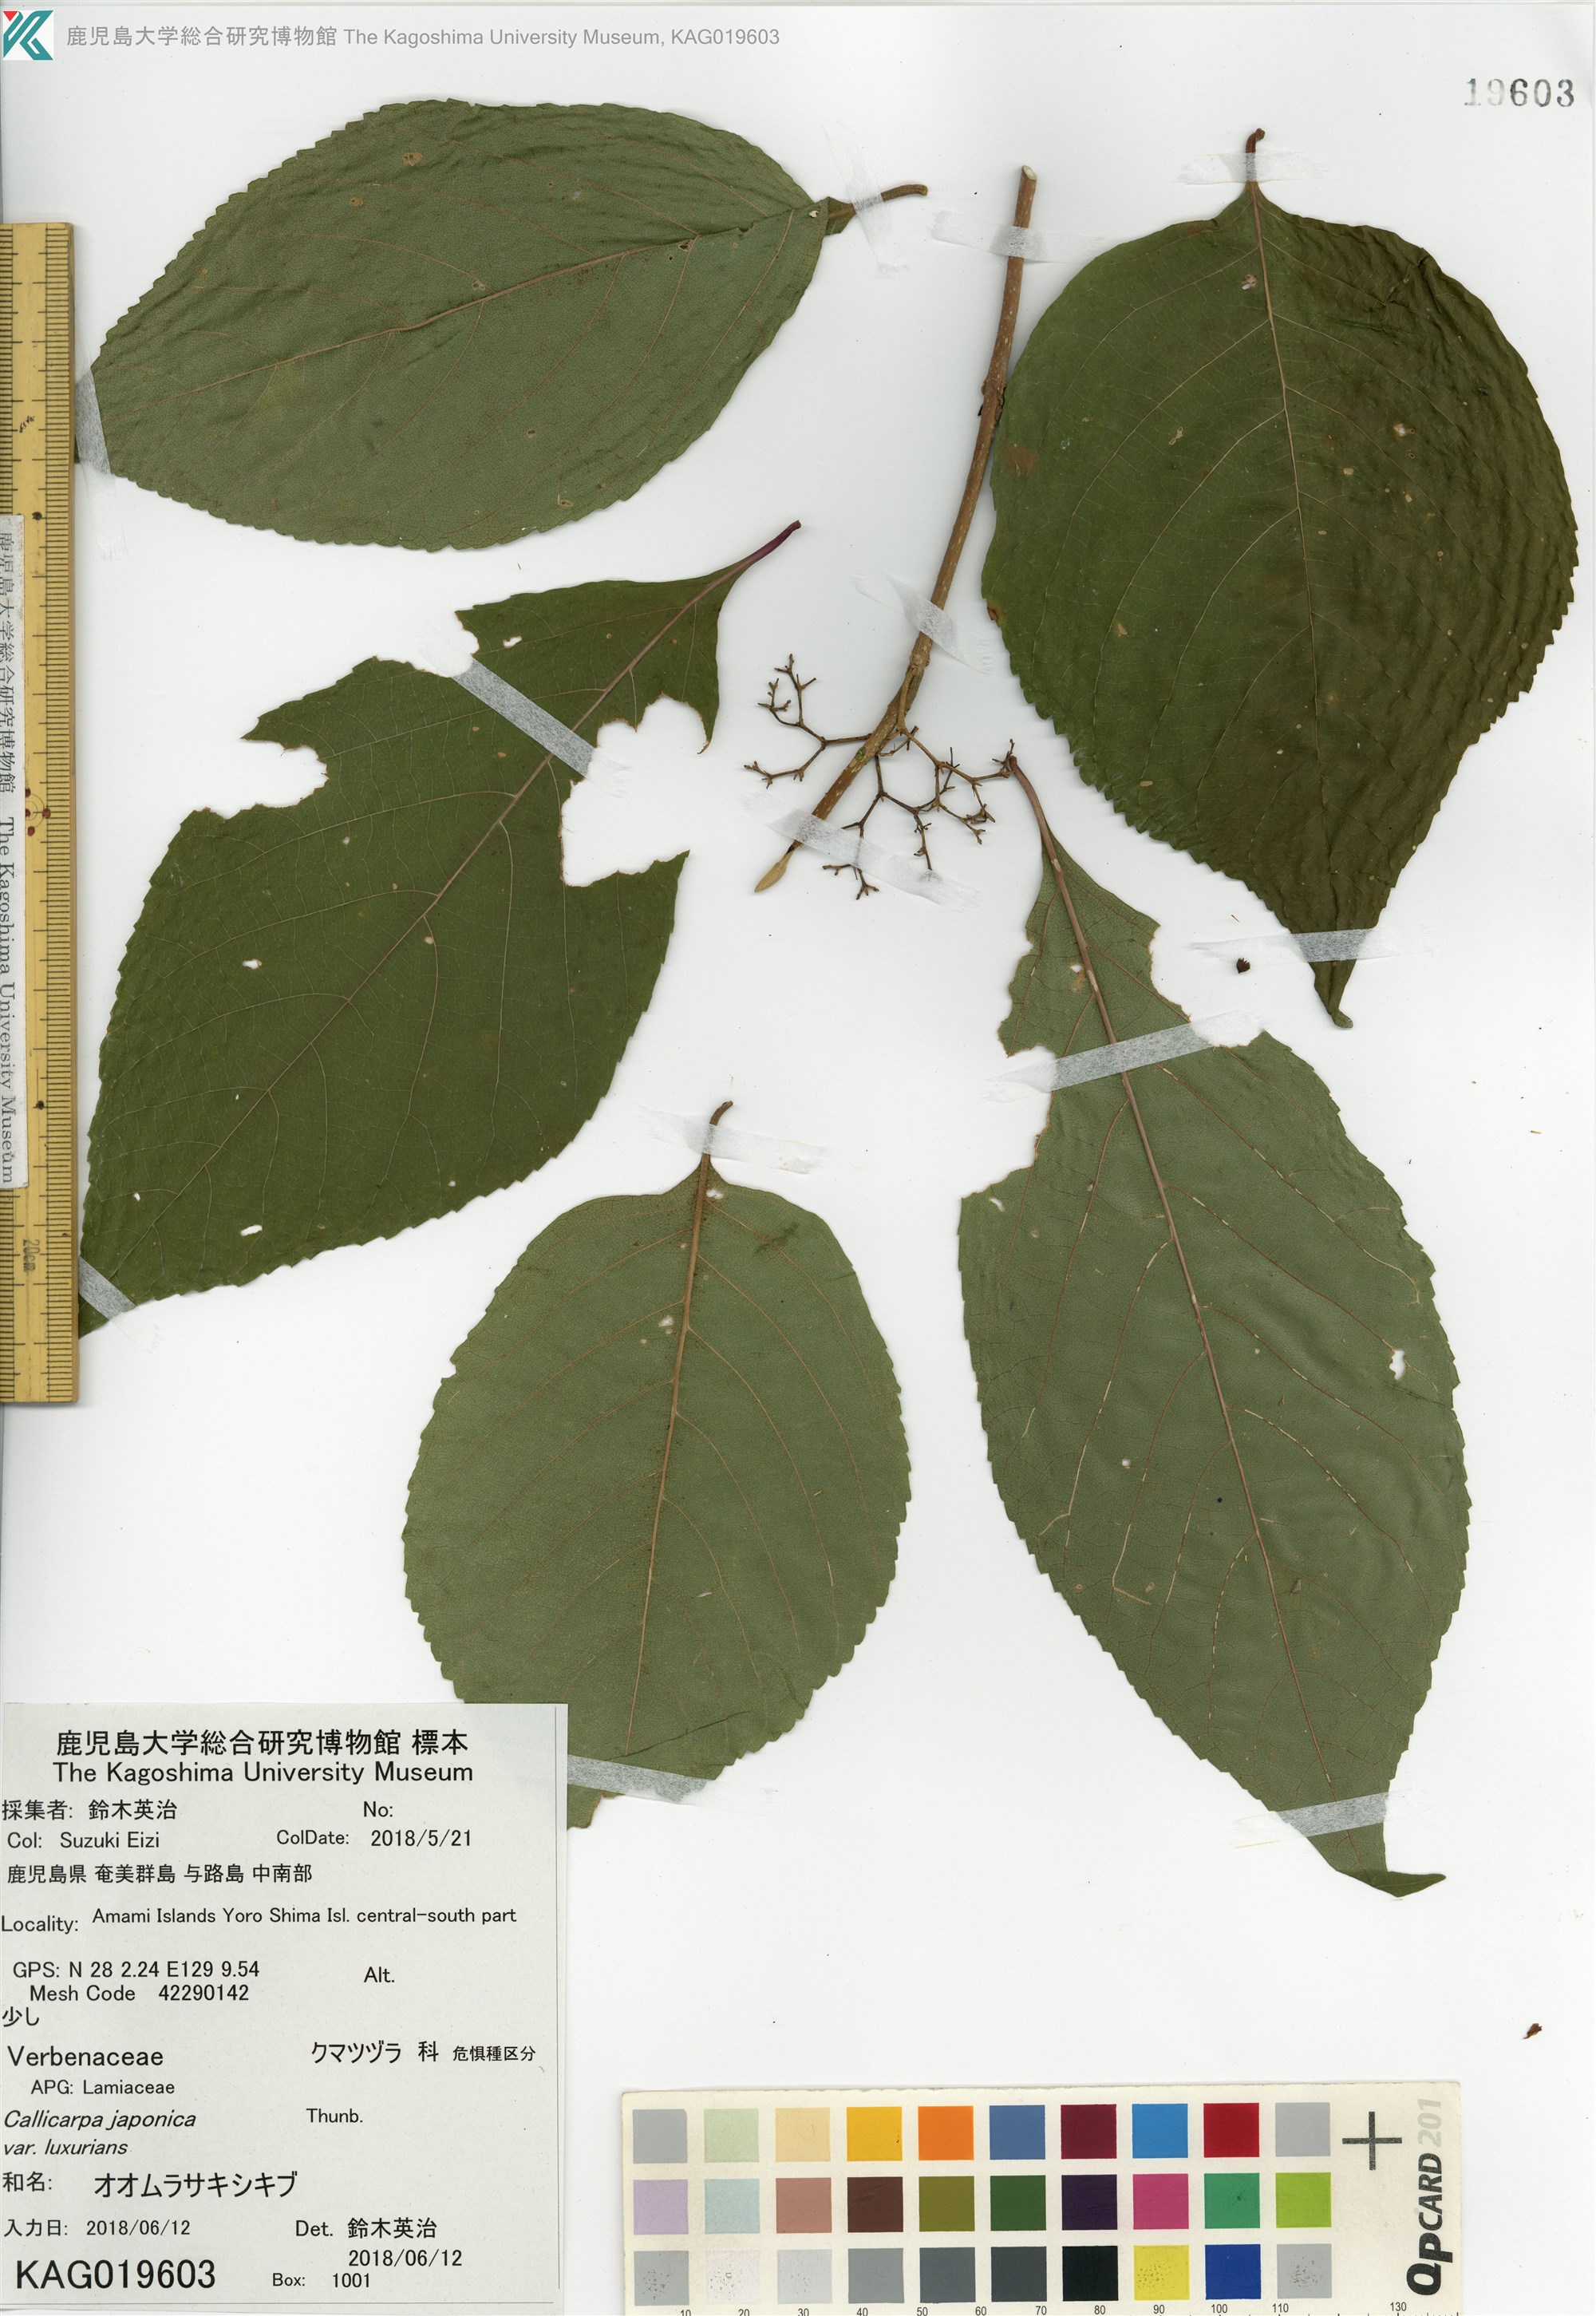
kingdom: Plantae
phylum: Tracheophyta
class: Magnoliopsida
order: Lamiales
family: Lamiaceae
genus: Callicarpa
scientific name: Callicarpa japonica
